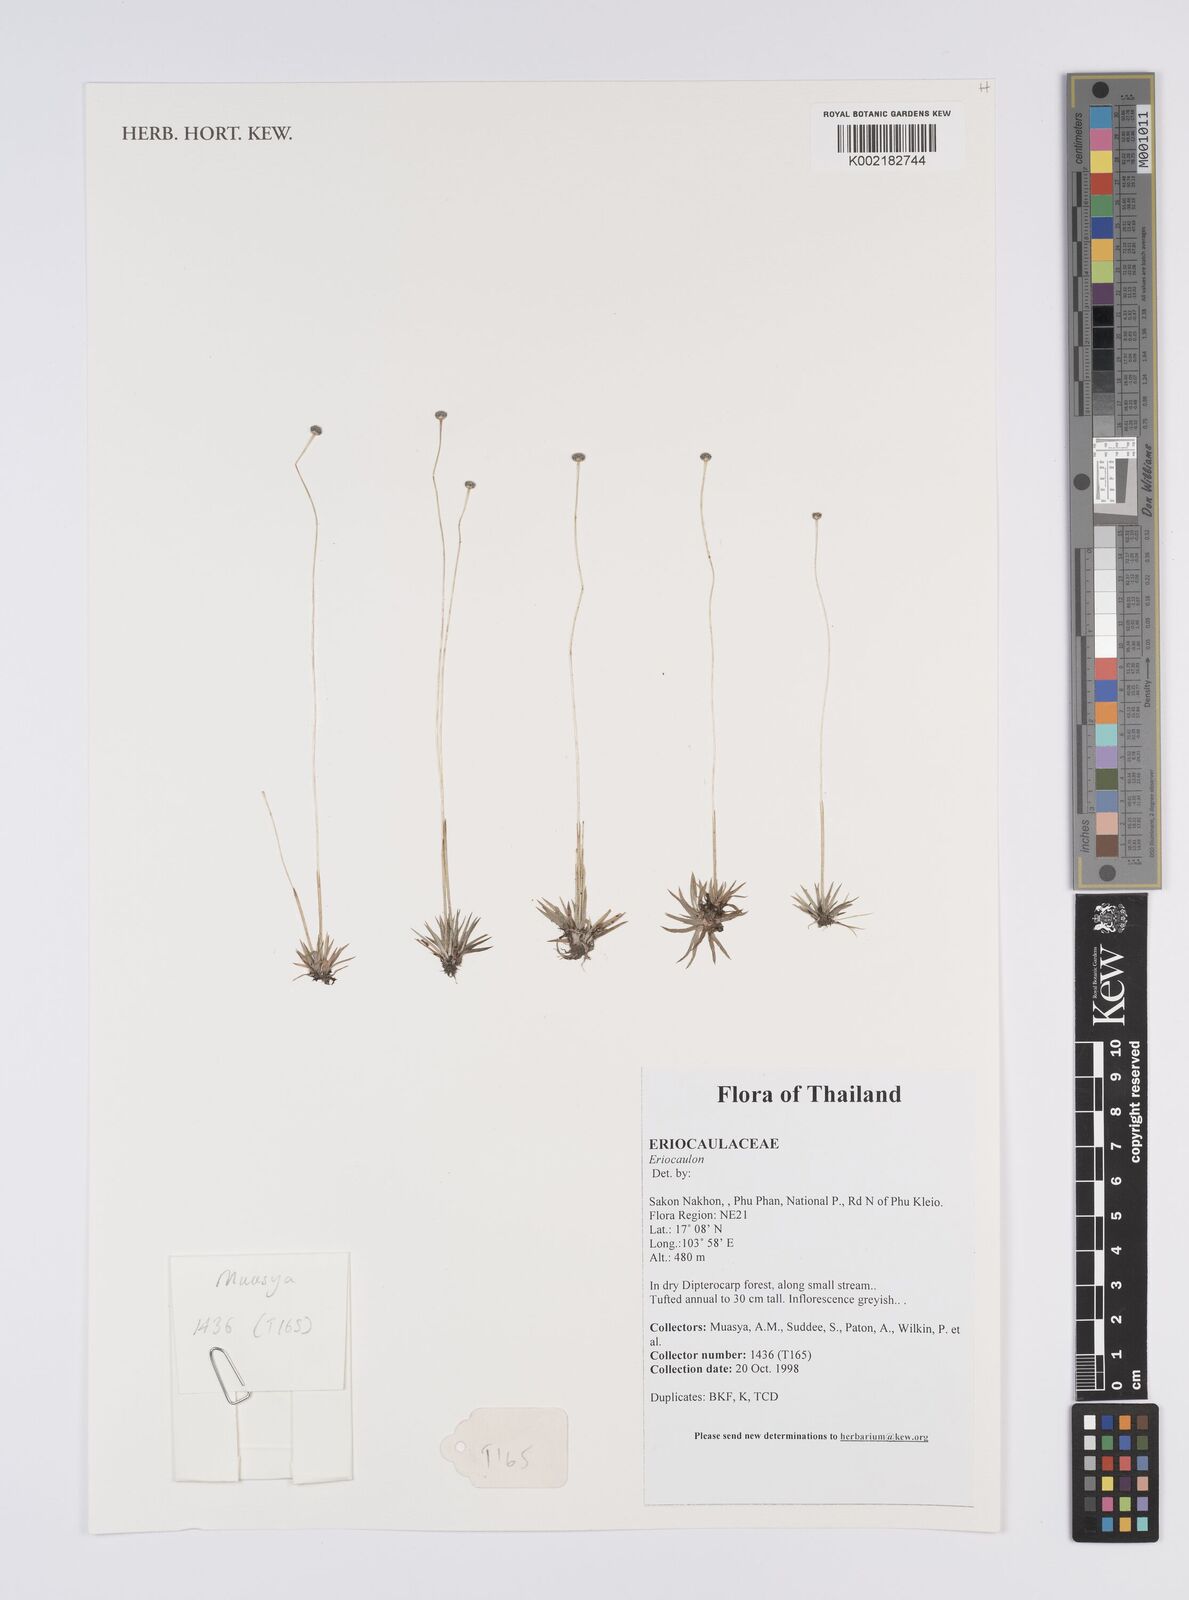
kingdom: Plantae
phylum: Tracheophyta
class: Liliopsida
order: Poales
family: Eriocaulaceae
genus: Eriocaulon
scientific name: Eriocaulon
